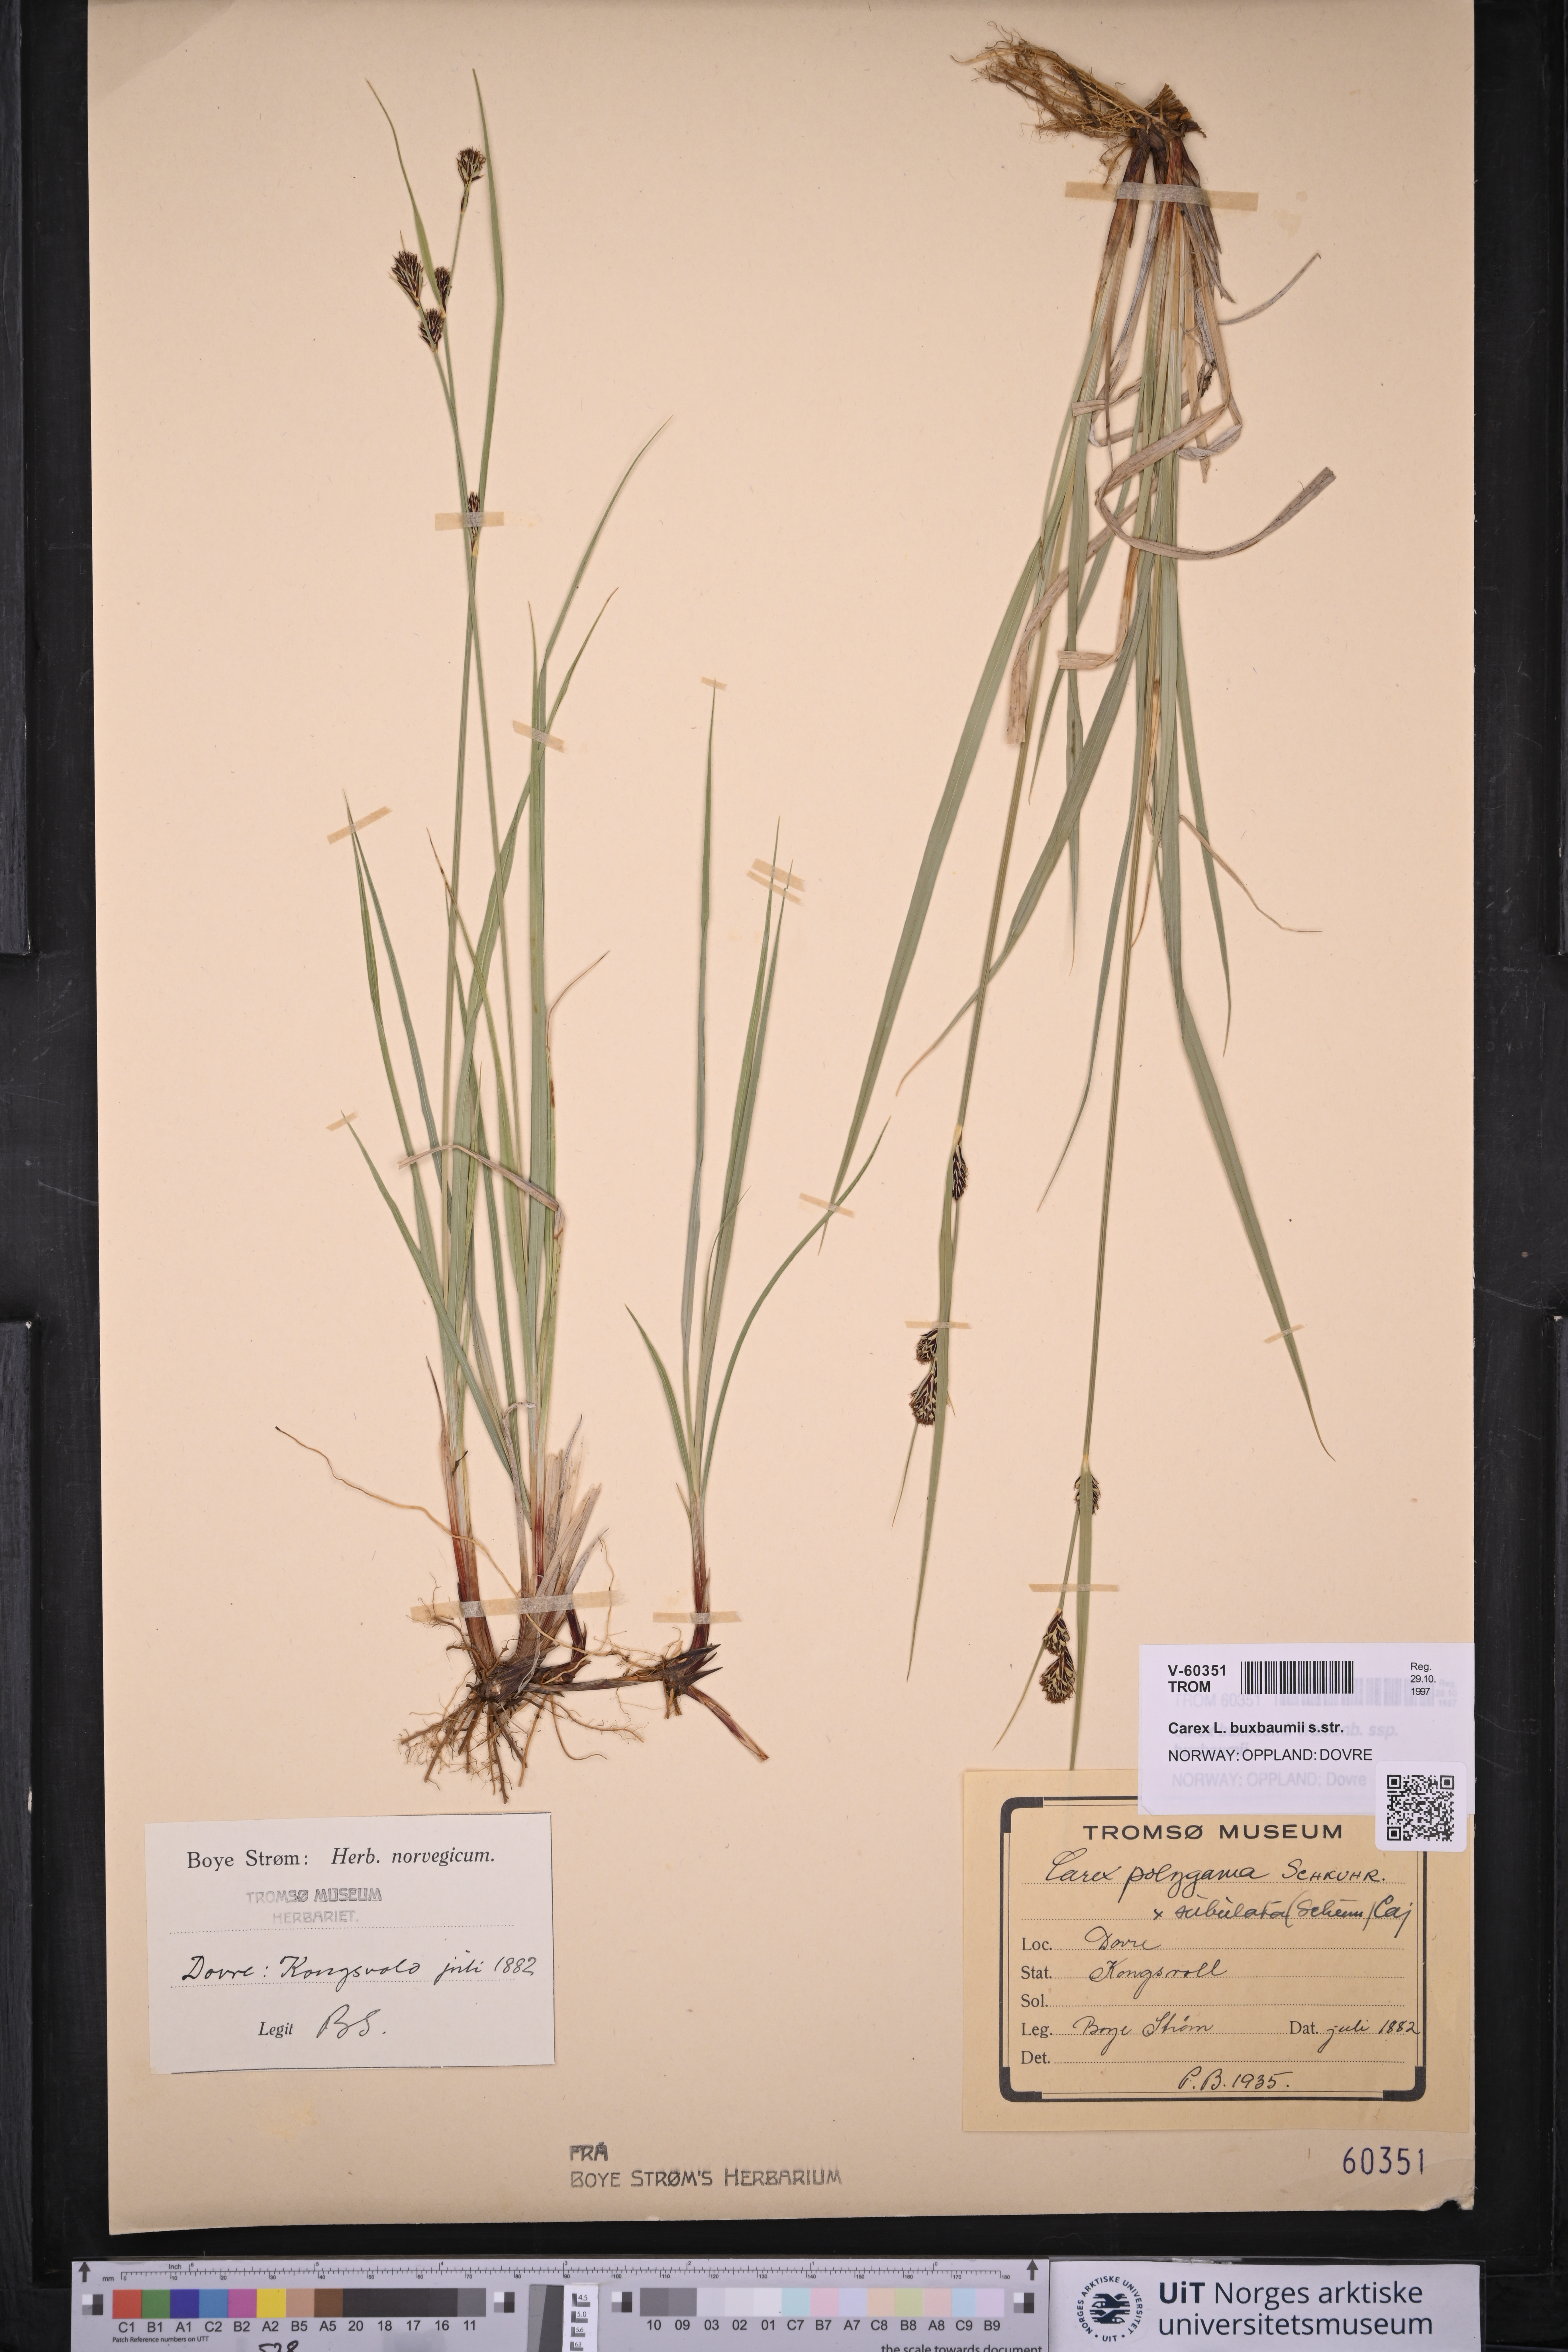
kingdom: Plantae
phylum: Tracheophyta
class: Liliopsida
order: Poales
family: Cyperaceae
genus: Carex
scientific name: Carex buxbaumii
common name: Club sedge
